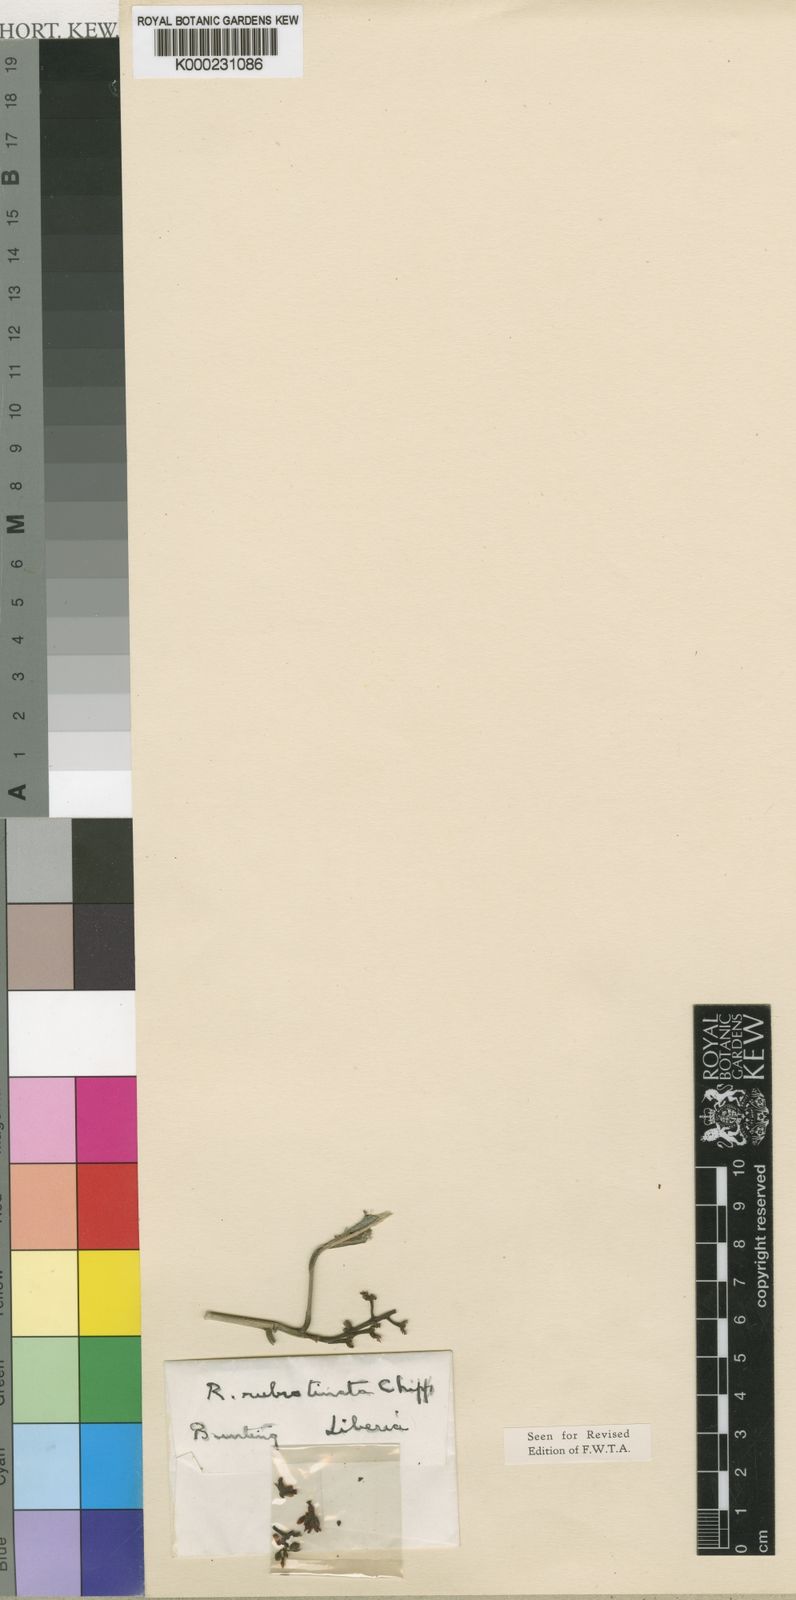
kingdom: Plantae
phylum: Tracheophyta
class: Magnoliopsida
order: Malpighiales
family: Violaceae
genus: Rinorea
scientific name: Rinorea rubrotincta
